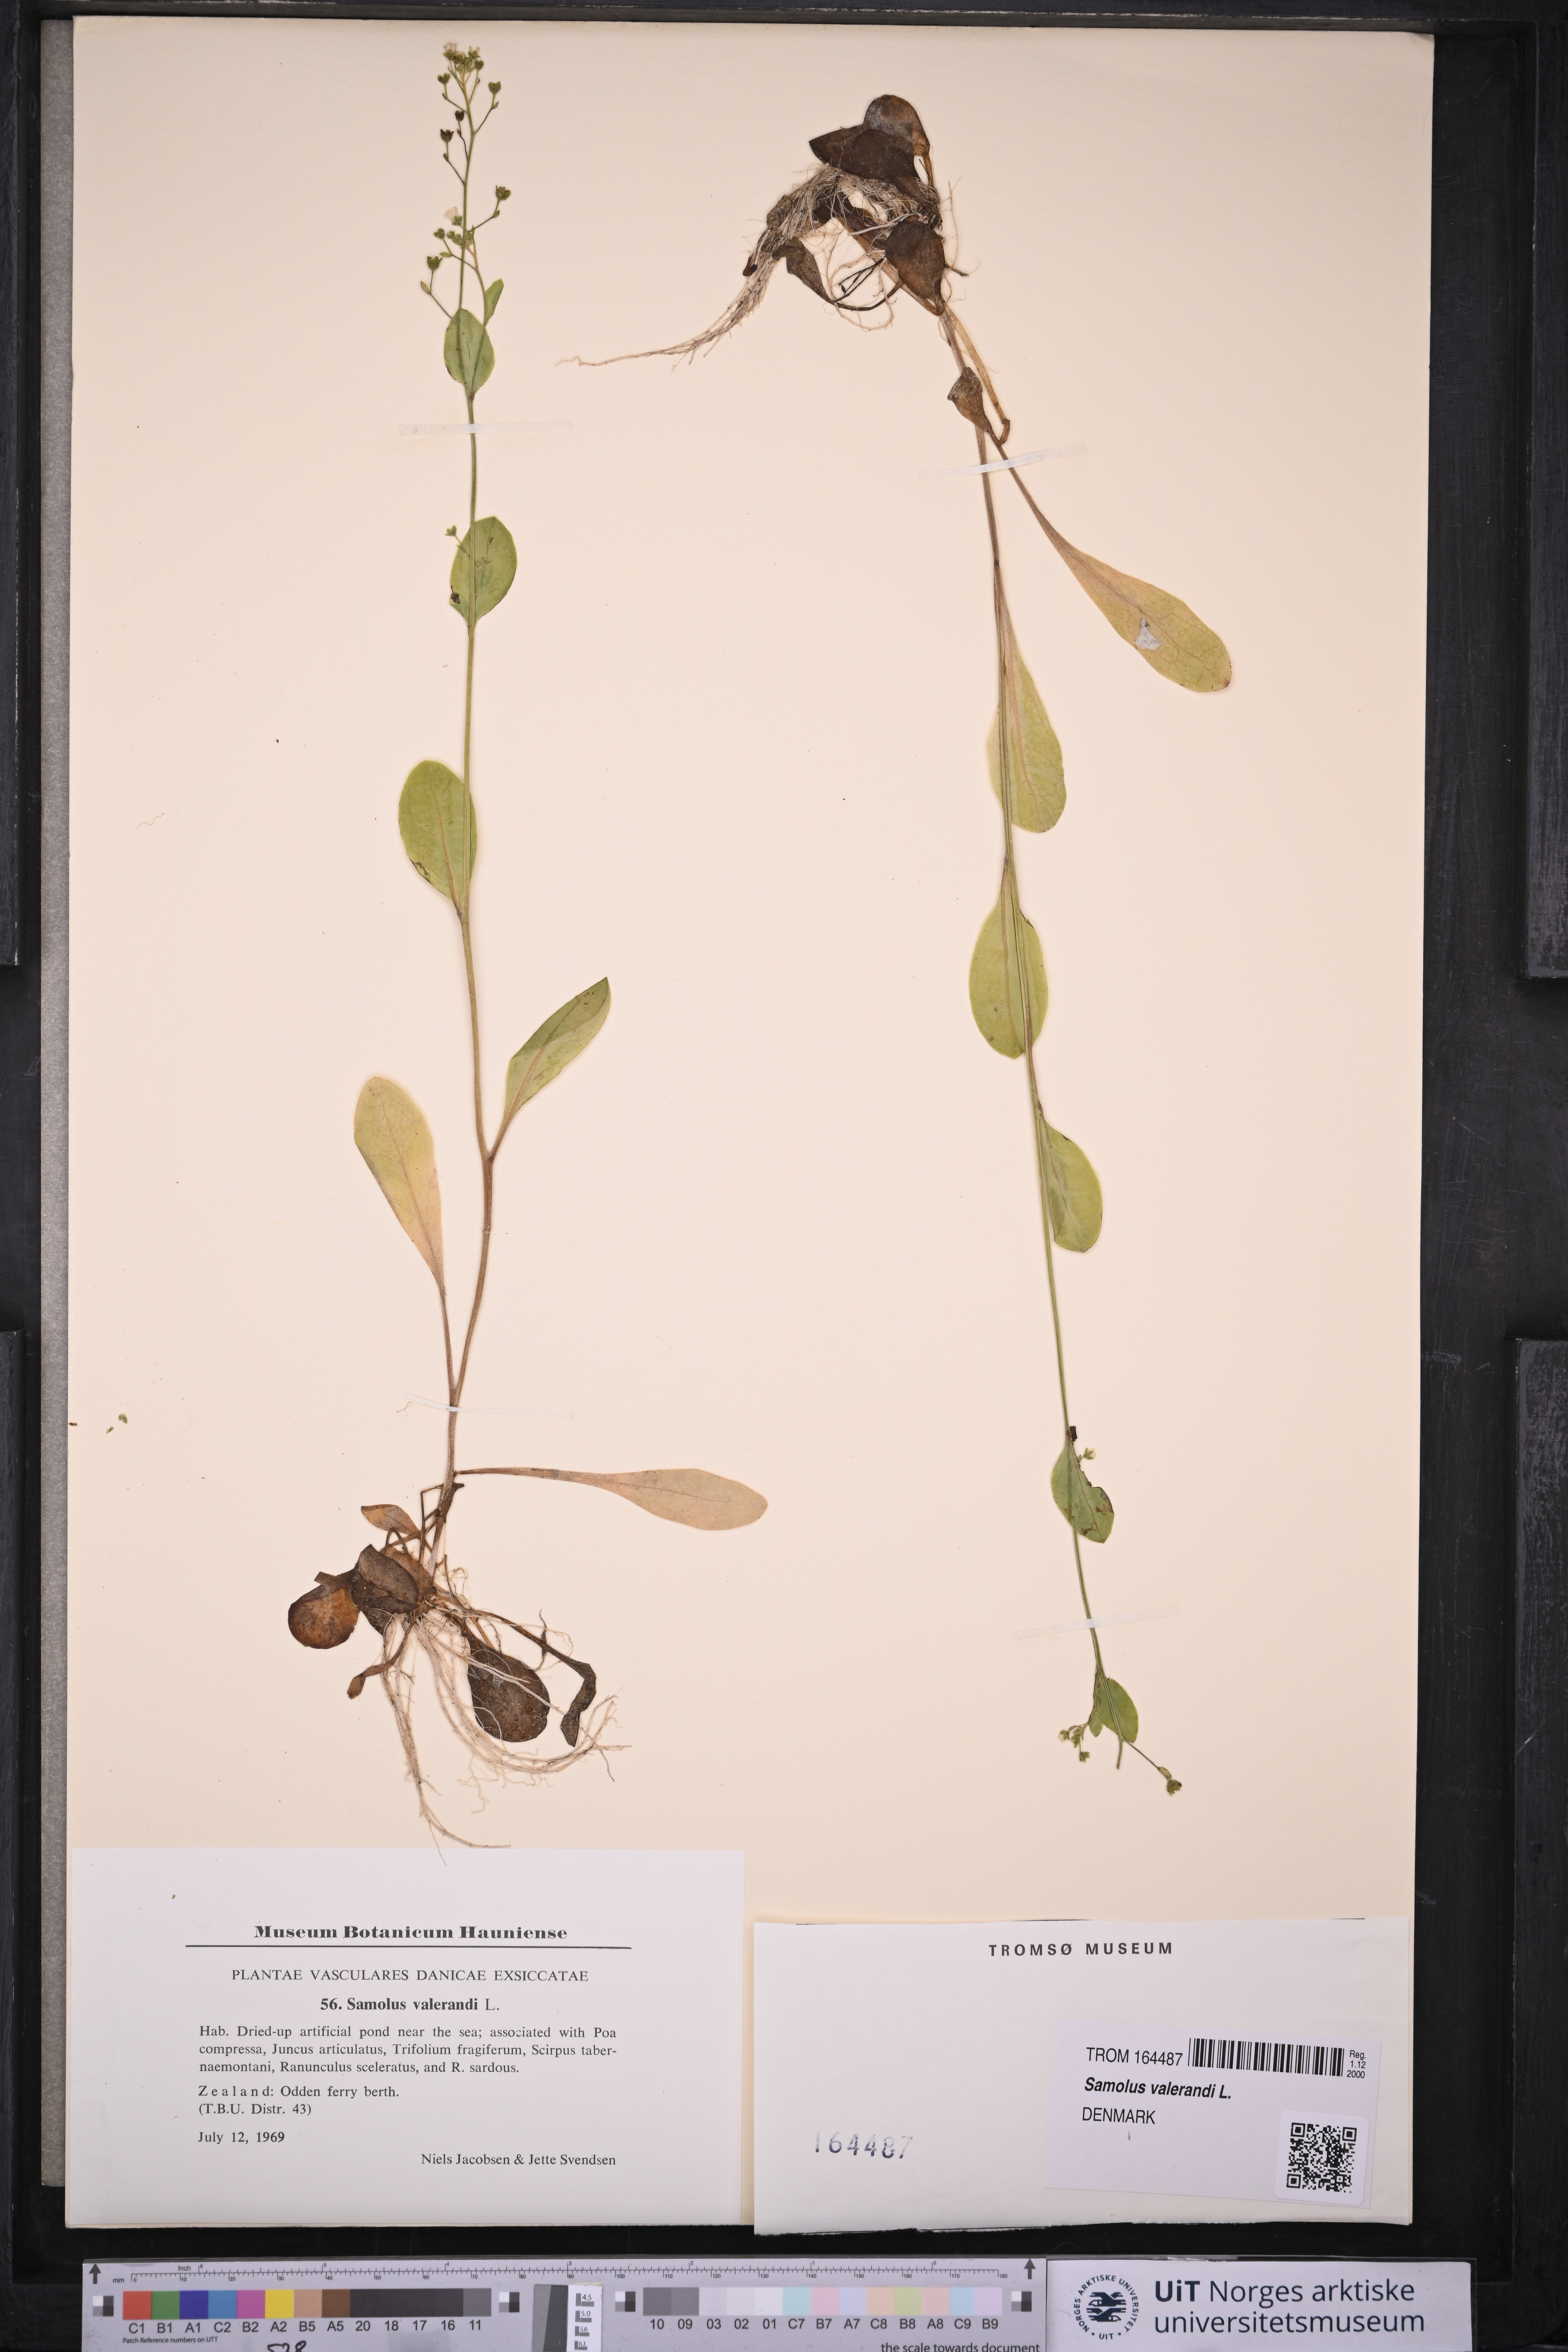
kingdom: Plantae
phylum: Tracheophyta
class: Magnoliopsida
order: Ericales
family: Primulaceae
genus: Samolus
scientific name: Samolus valerandi
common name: Brookweed
